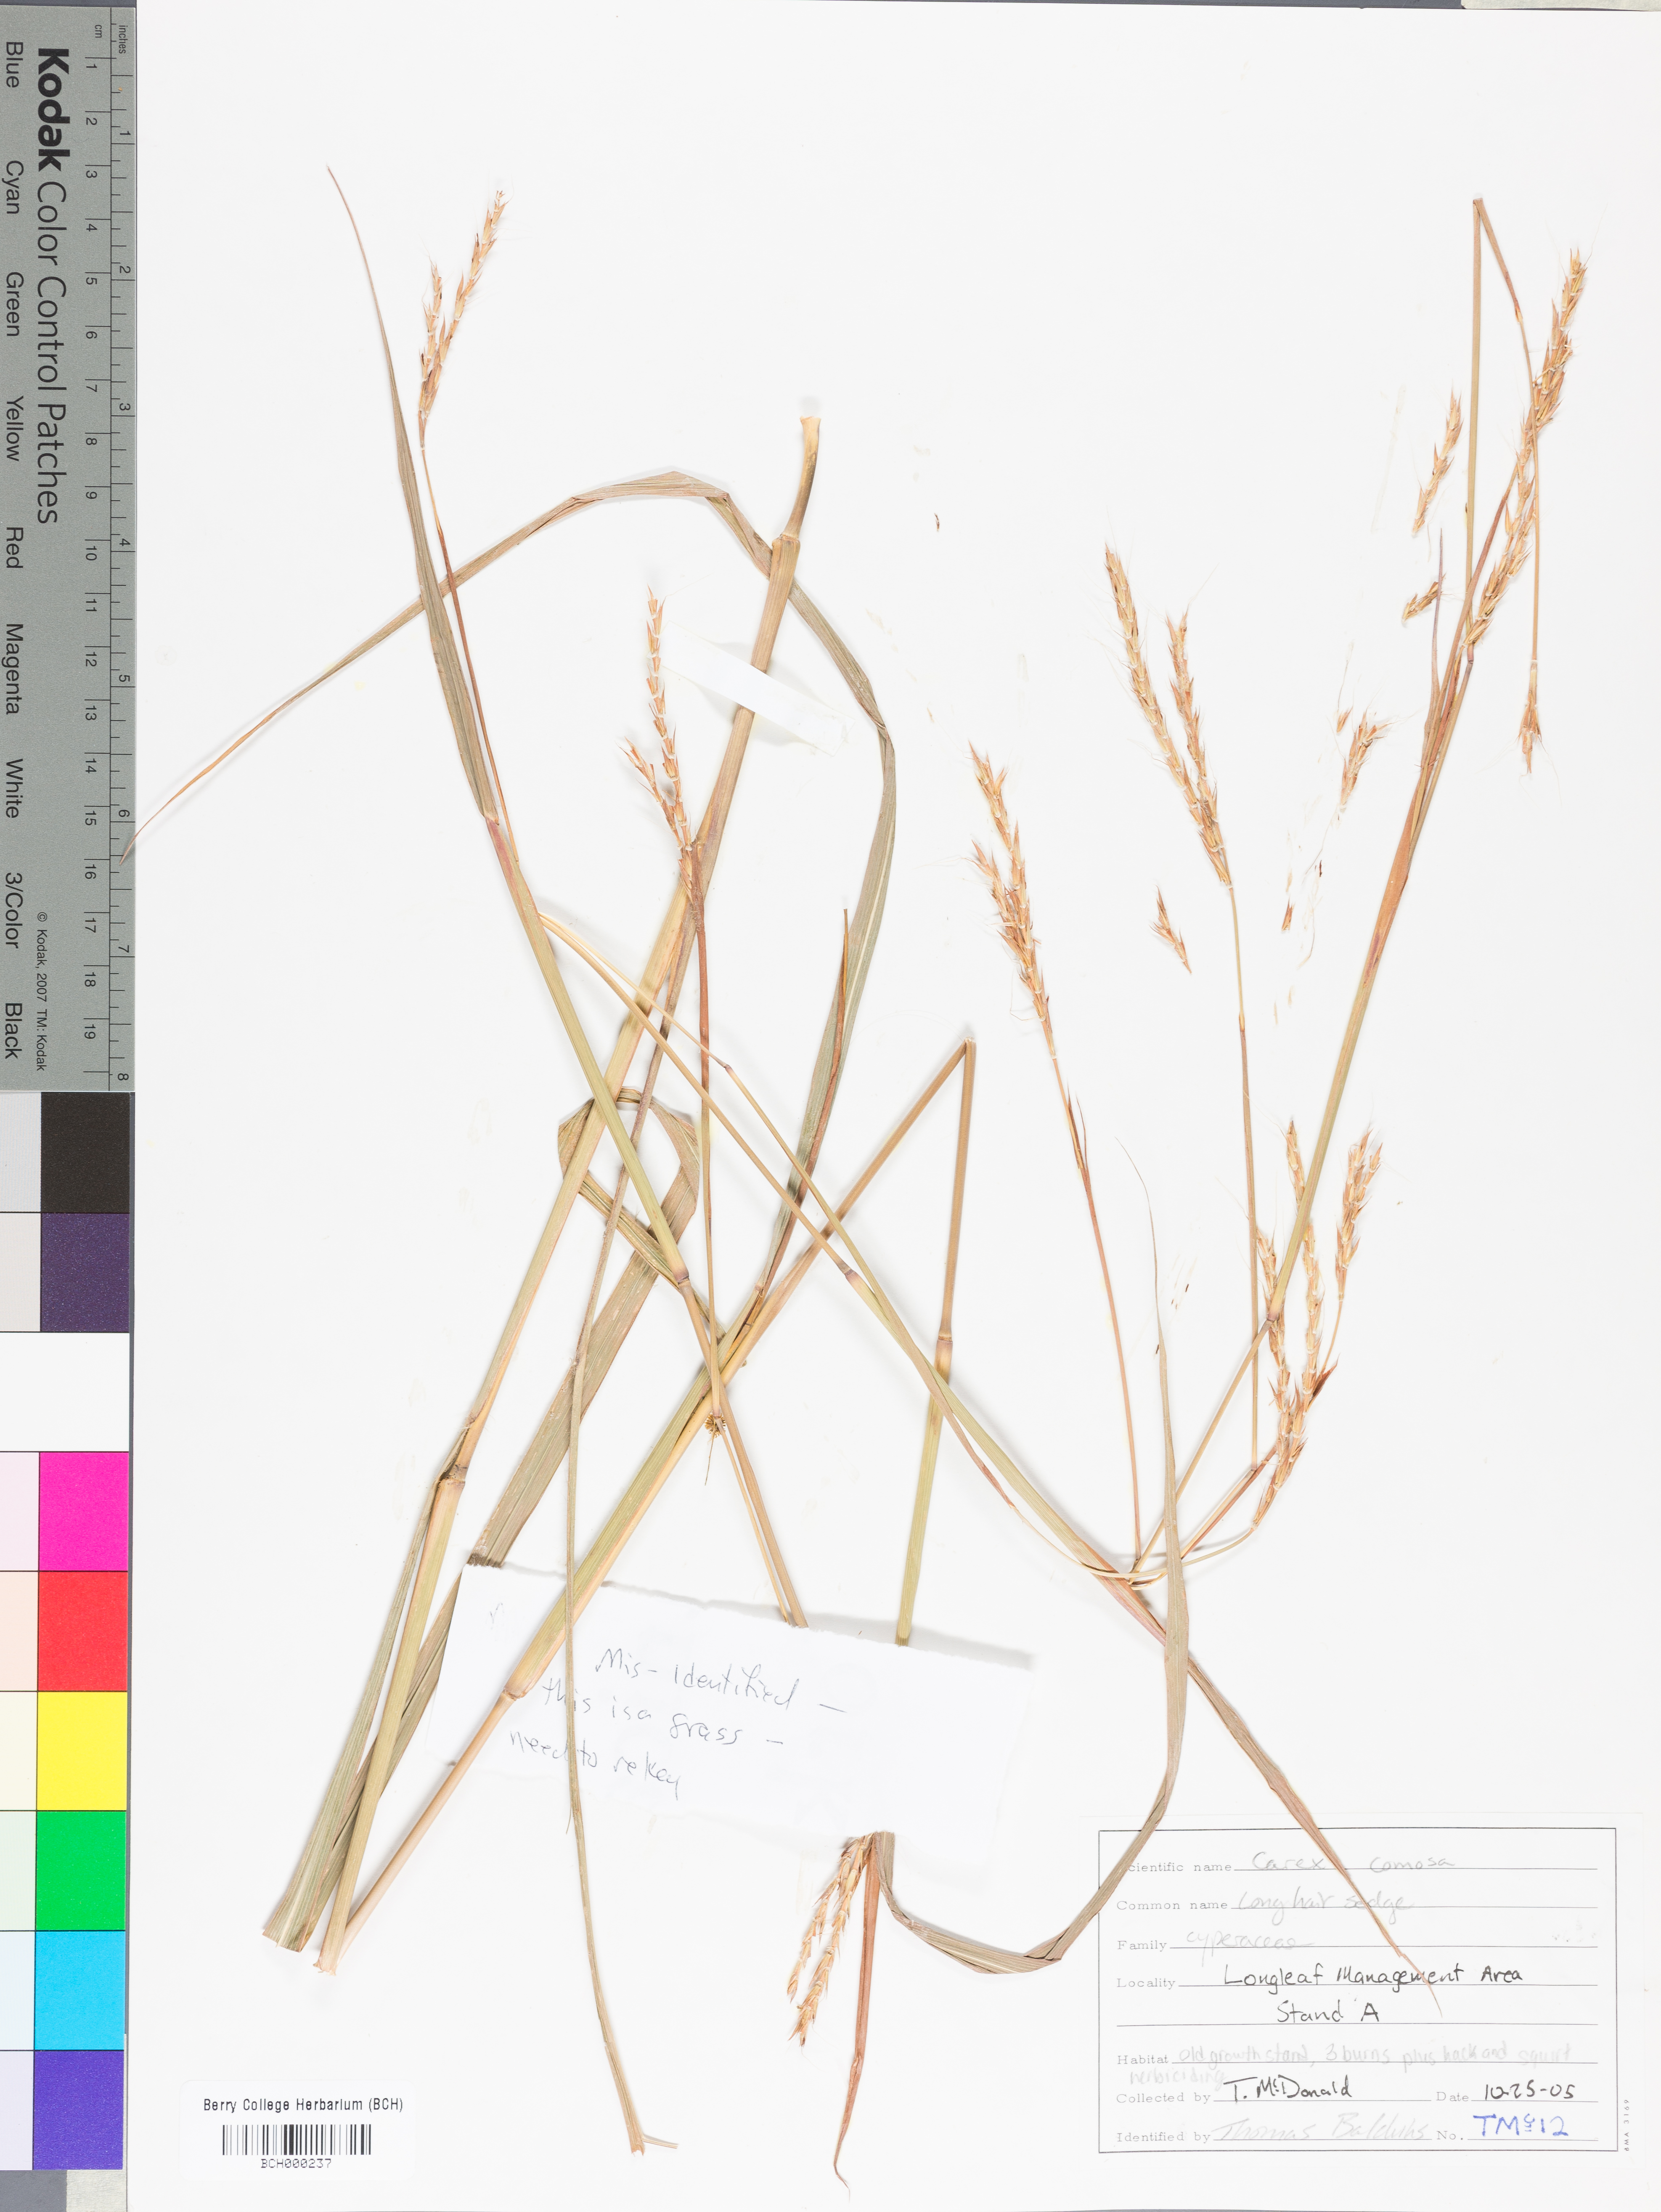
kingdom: Plantae
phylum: Tracheophyta
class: Liliopsida
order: Poales
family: Cyperaceae
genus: Carex
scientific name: Carex comosa
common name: Bristly sedge
